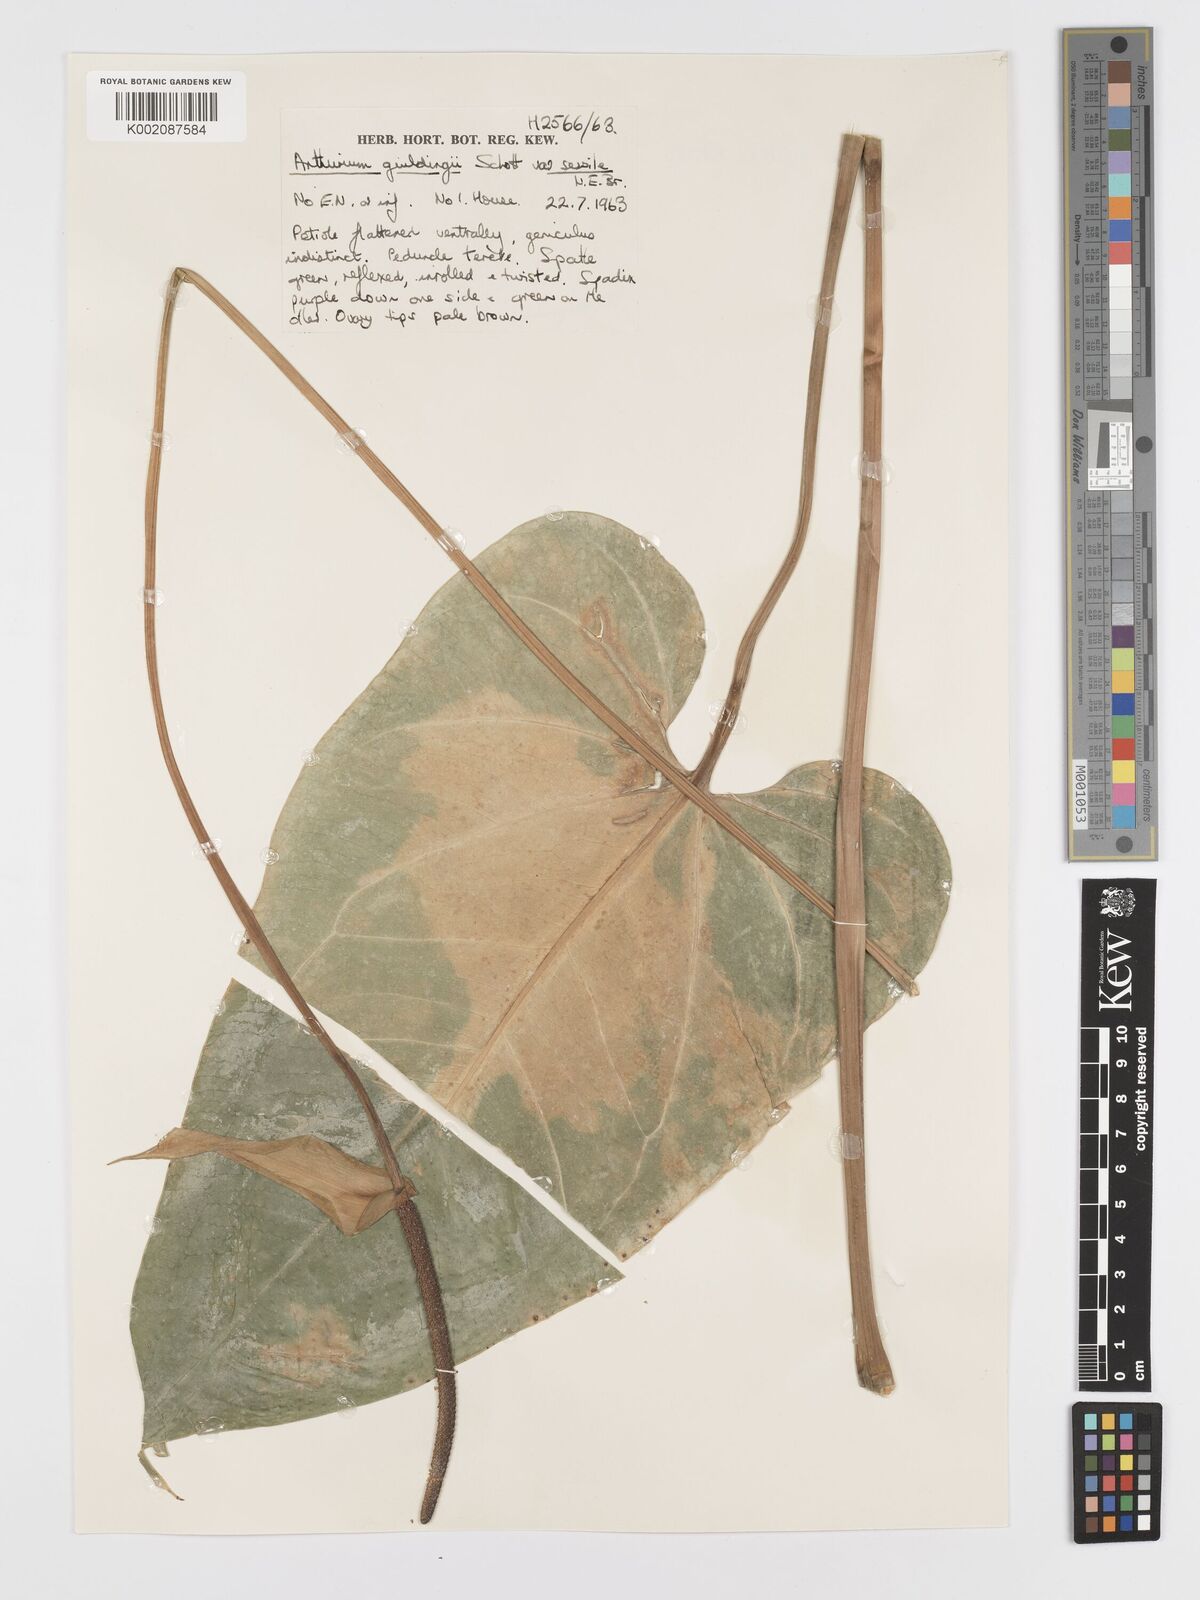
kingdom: Plantae
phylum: Tracheophyta
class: Liliopsida
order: Alismatales
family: Araceae
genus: Anthurium
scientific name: Anthurium cordatum
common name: Monkey tail
